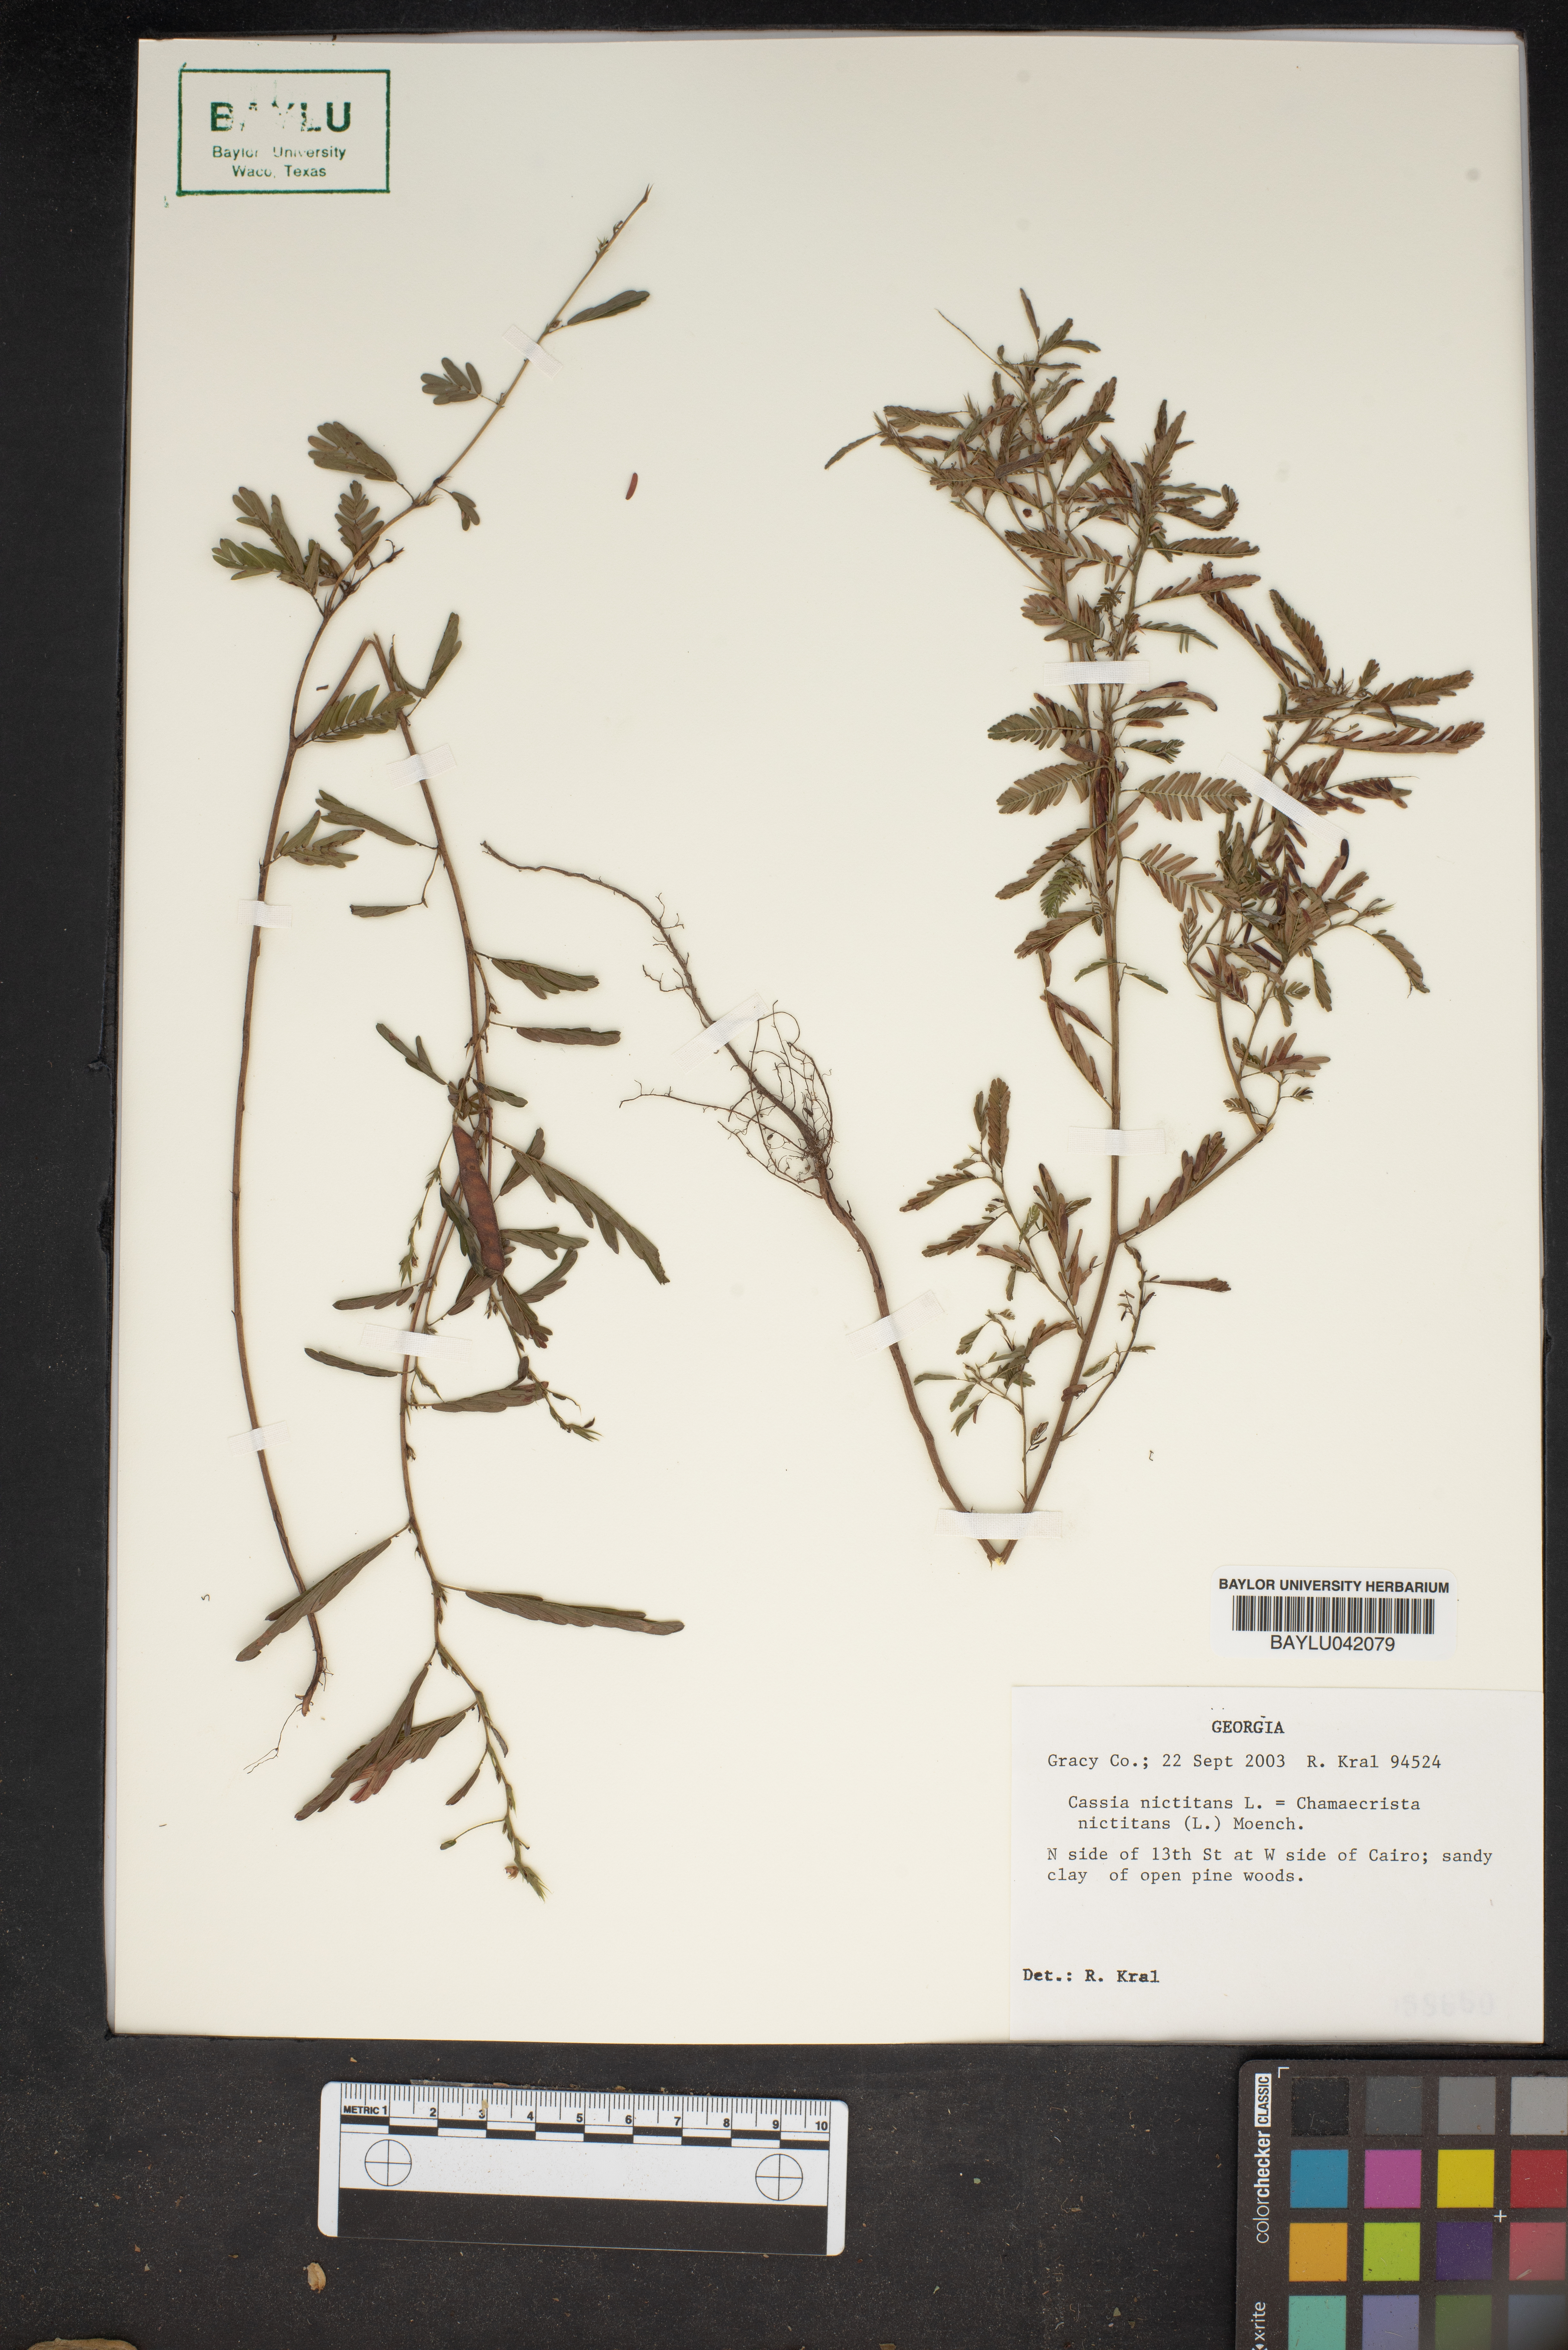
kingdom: Plantae
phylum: Tracheophyta
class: Magnoliopsida
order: Fabales
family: Fabaceae
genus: Chamaecrista
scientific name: Chamaecrista nictitans
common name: Sensitive cassia
